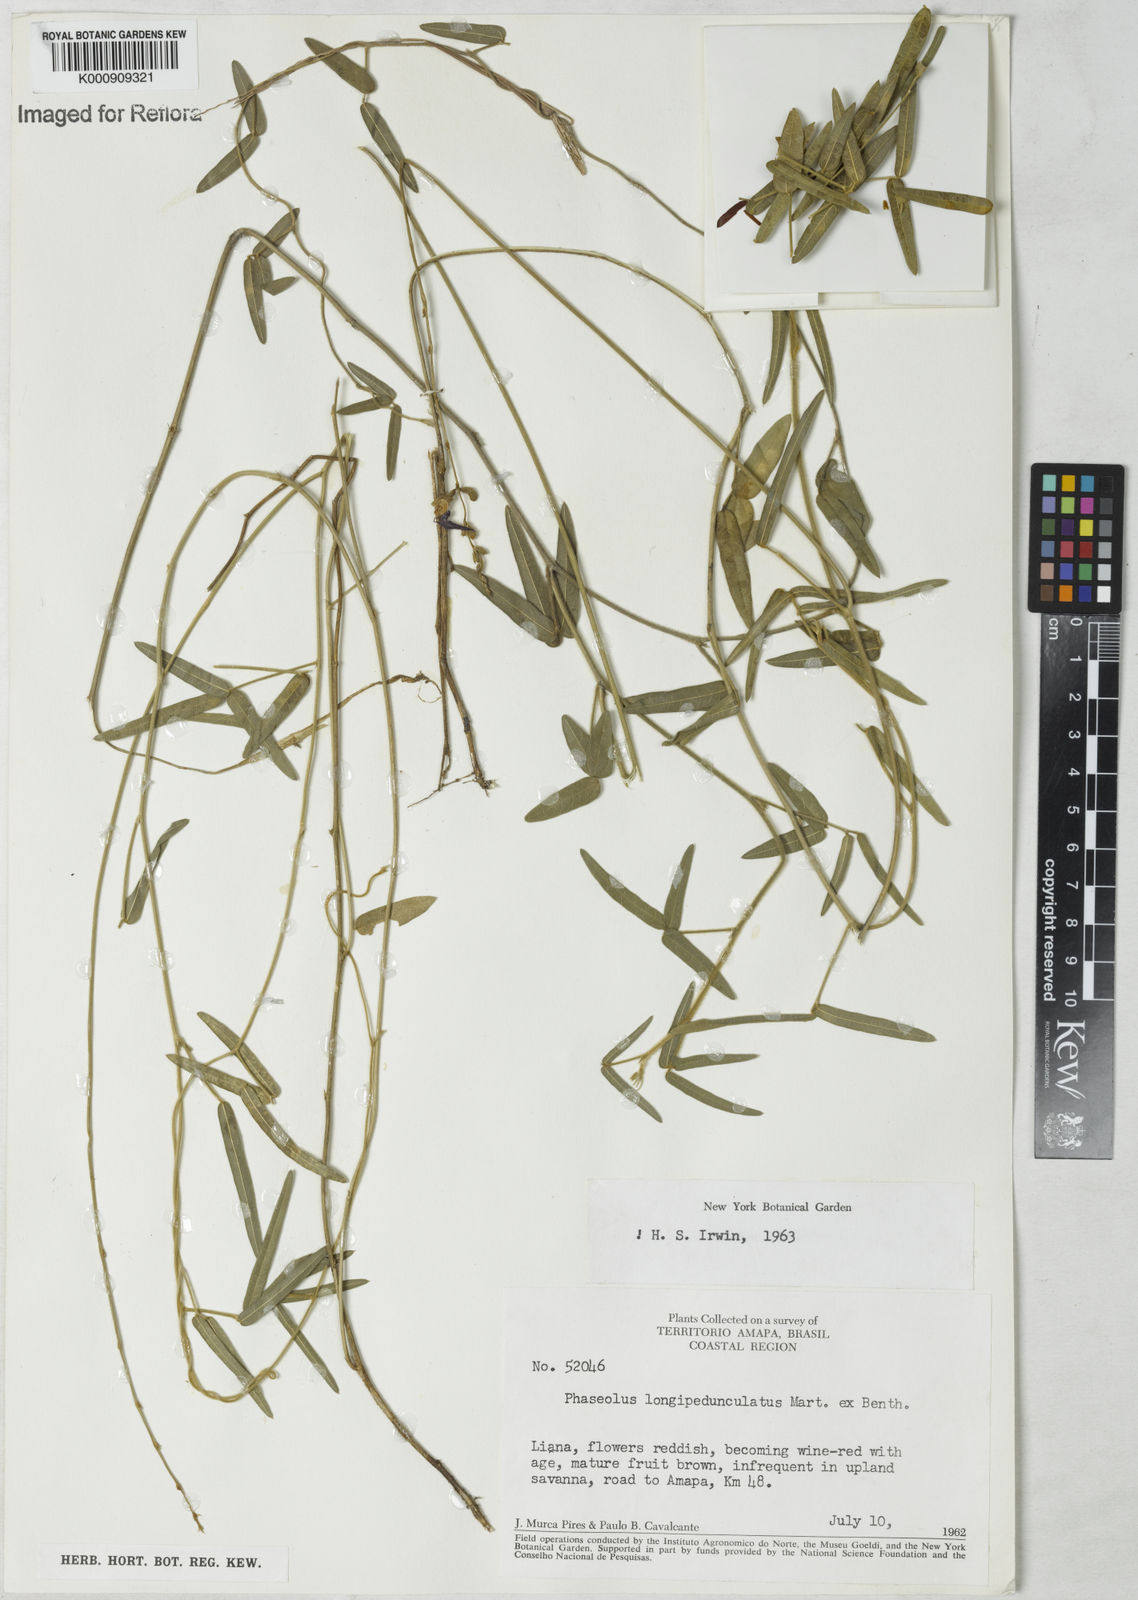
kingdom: Plantae
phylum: Tracheophyta
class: Magnoliopsida
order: Fabales
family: Fabaceae
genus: Macroptilium
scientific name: Macroptilium gracile
